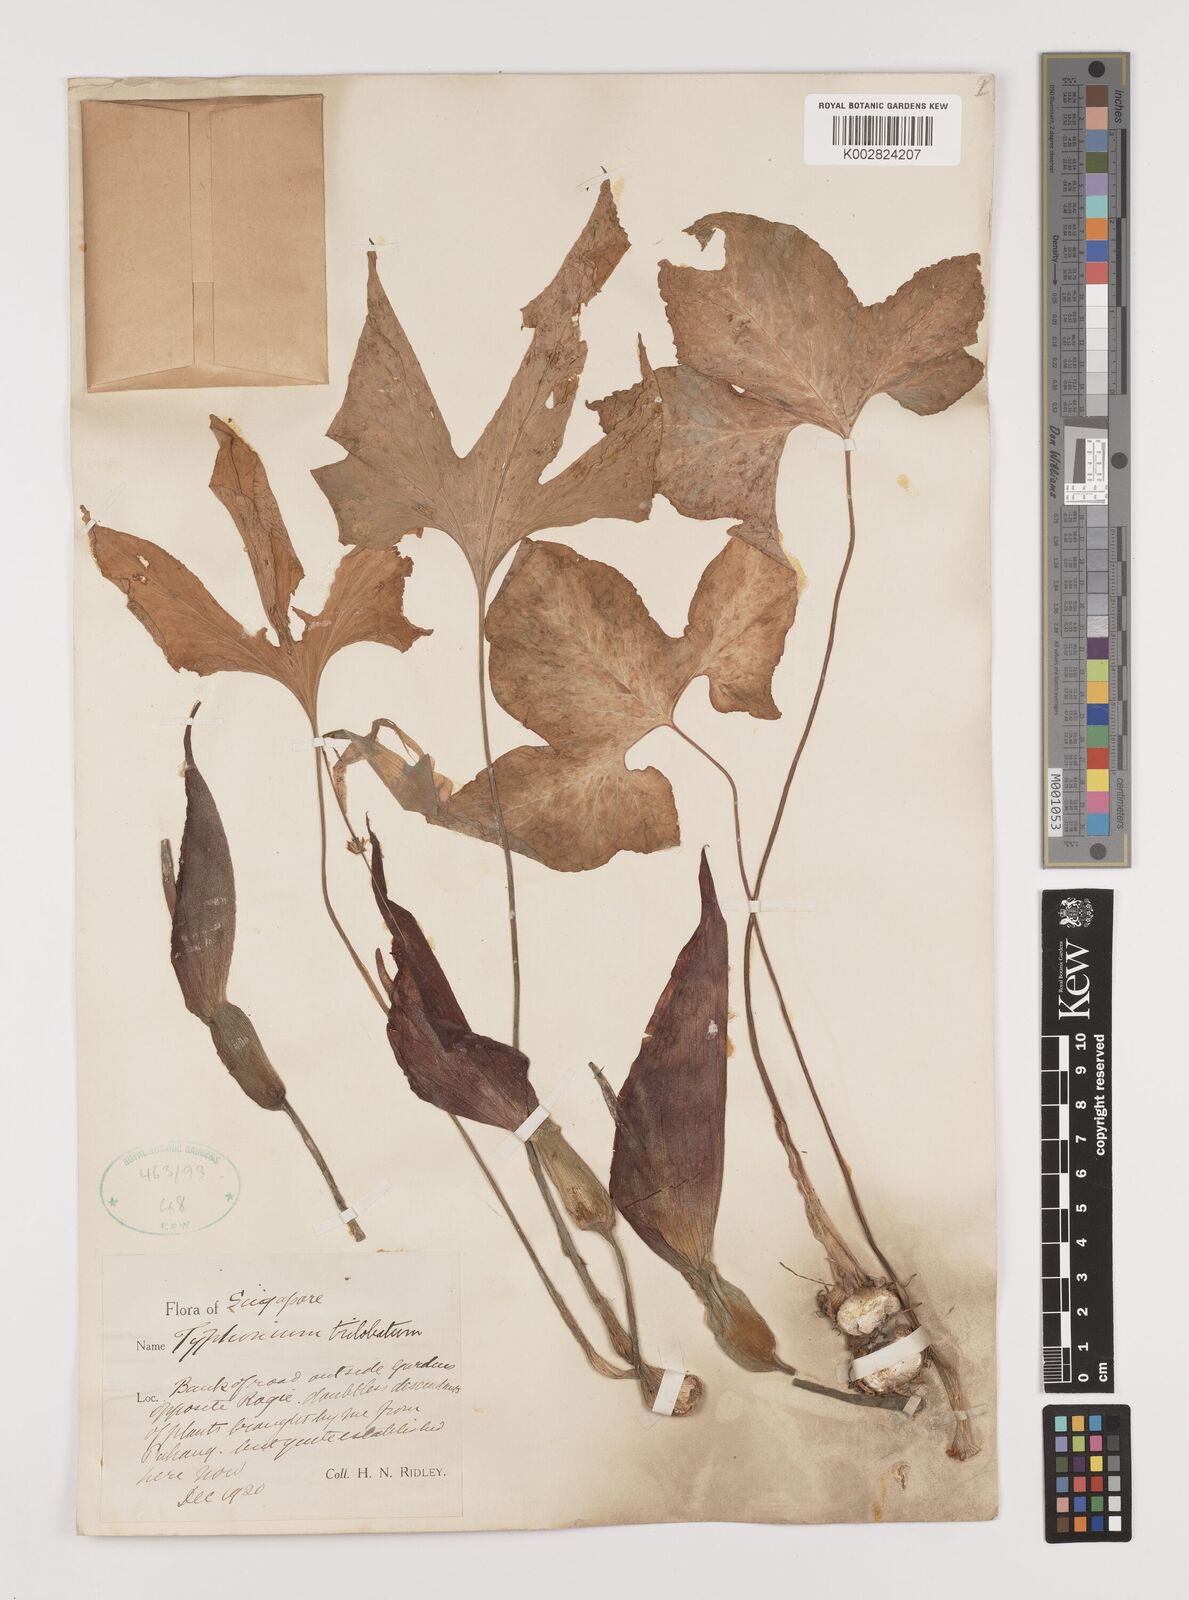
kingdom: Plantae
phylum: Tracheophyta
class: Liliopsida
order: Alismatales
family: Araceae
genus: Typhonium
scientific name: Typhonium trilobatum
